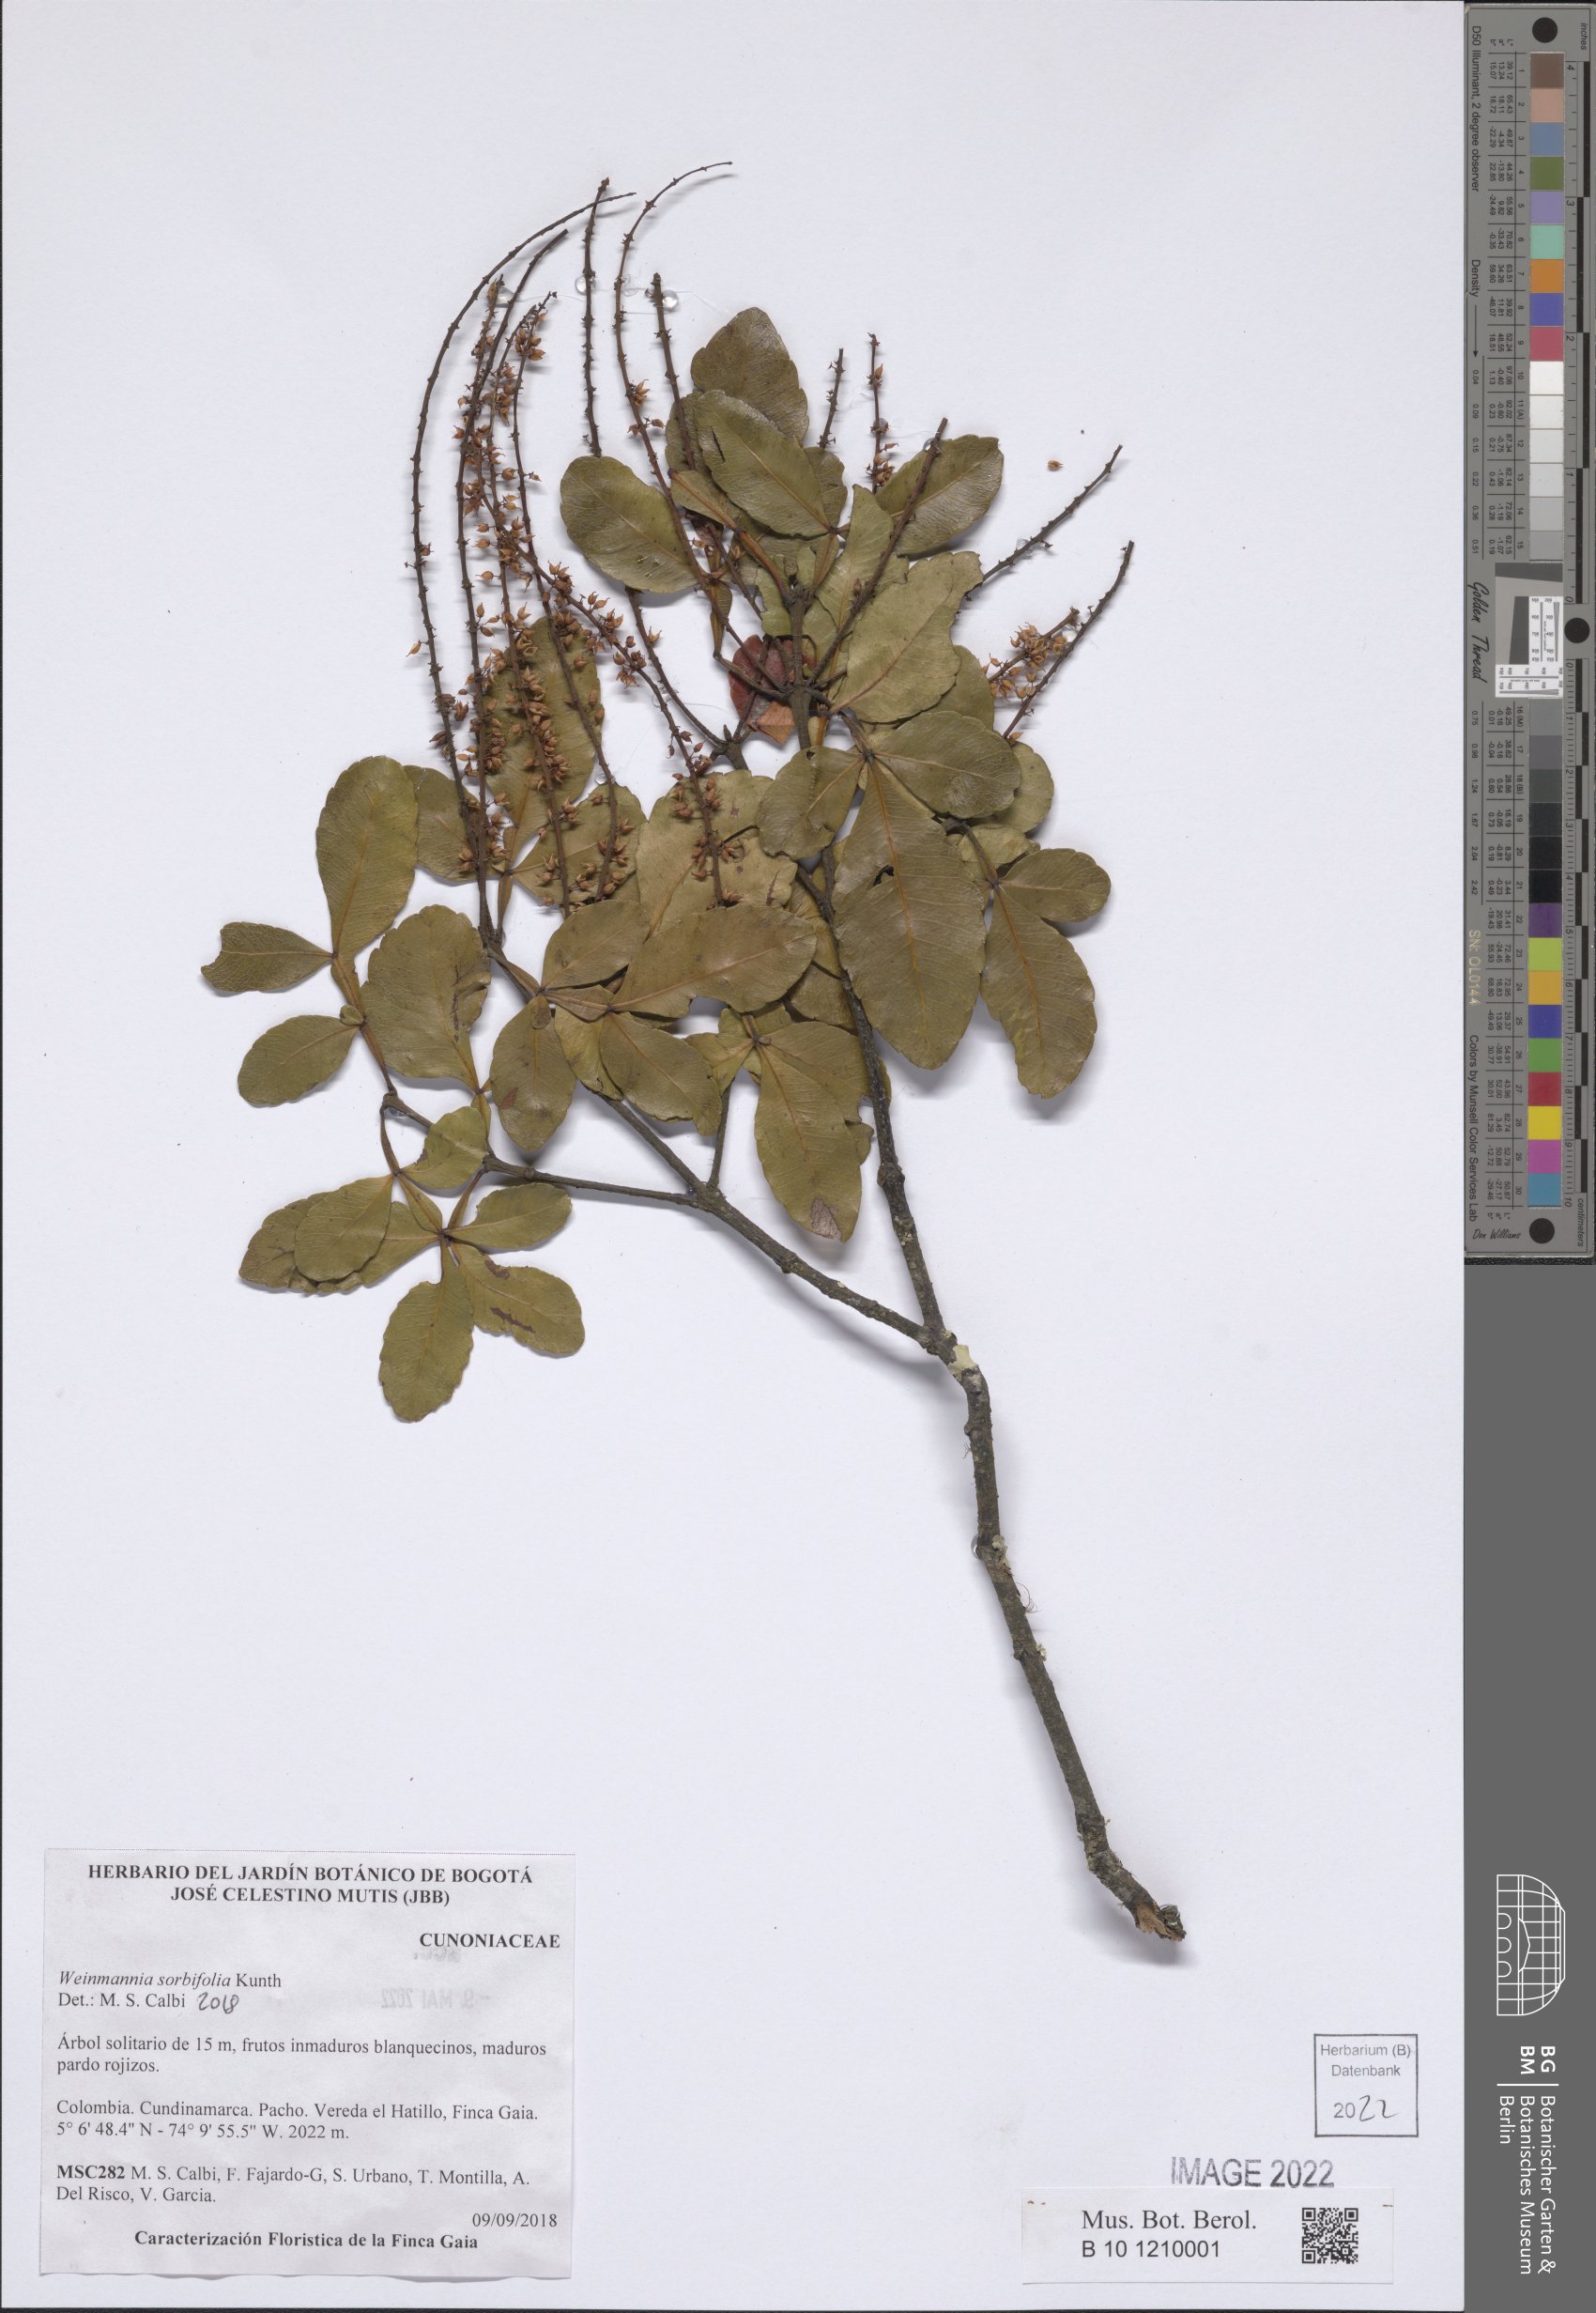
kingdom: Plantae
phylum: Tracheophyta
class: Magnoliopsida
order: Oxalidales
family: Cunoniaceae
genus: Weinmannia
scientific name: Weinmannia sorbifolia
